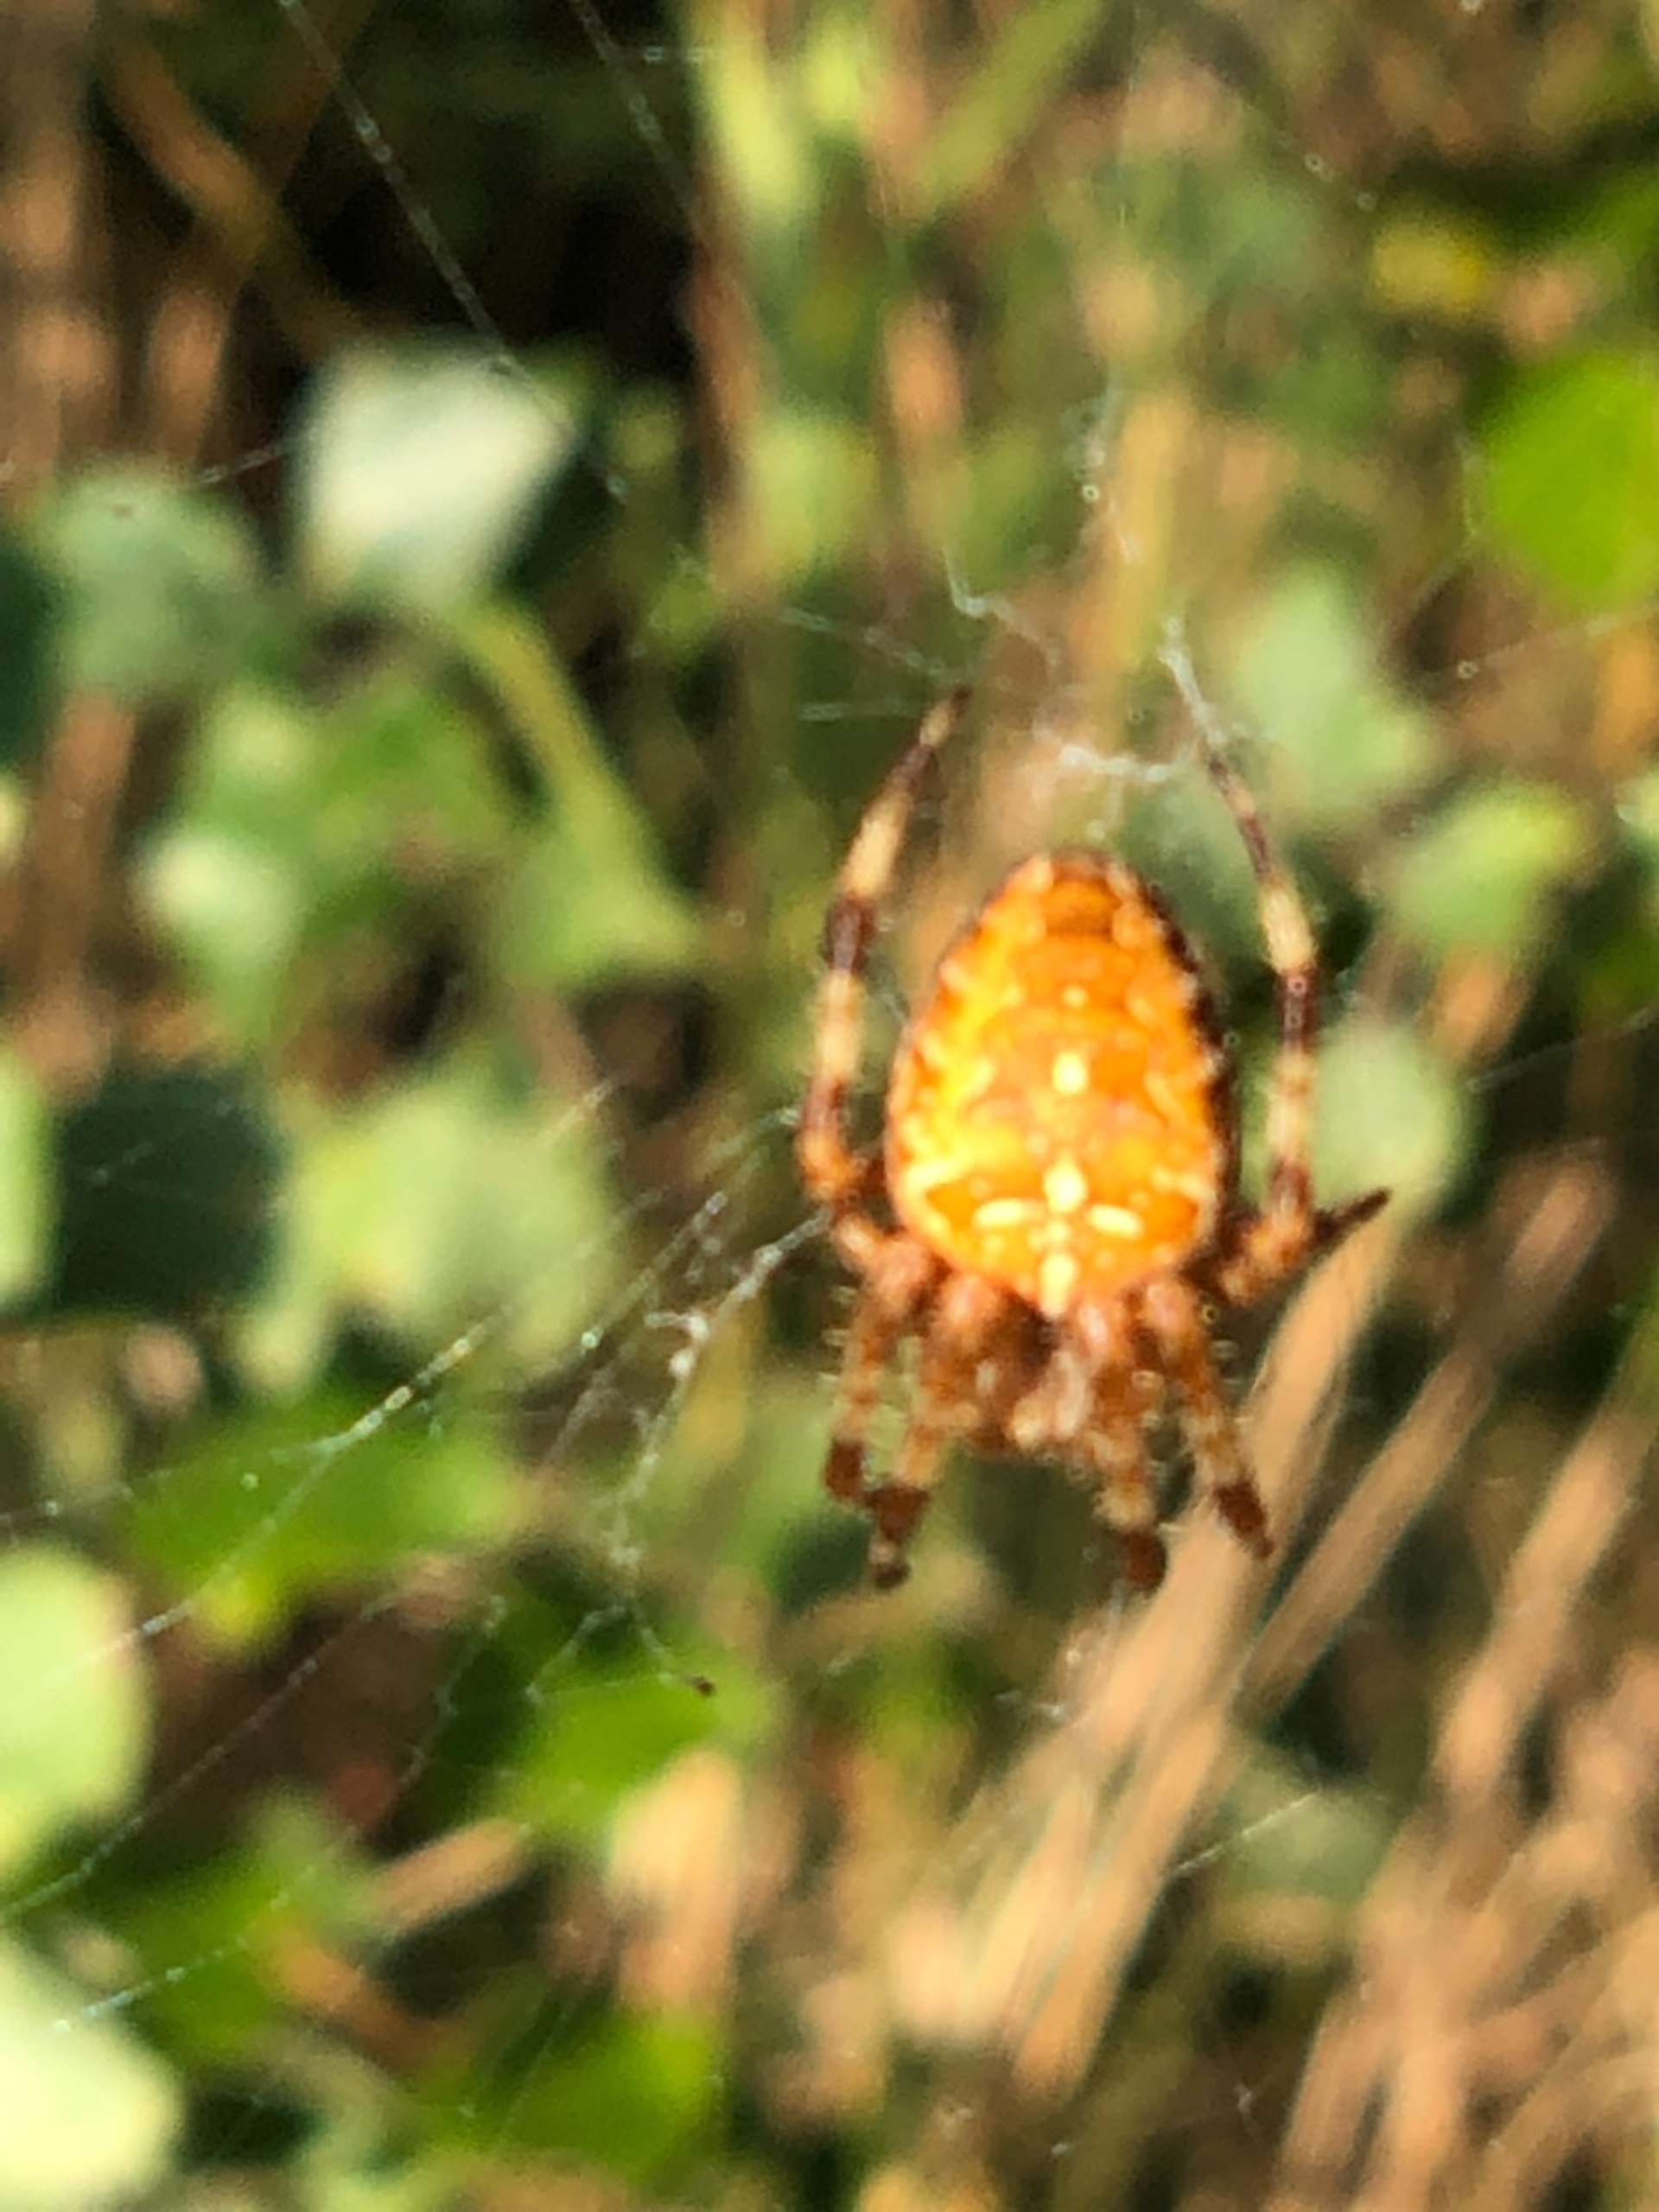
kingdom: Animalia
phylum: Arthropoda
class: Arachnida
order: Araneae
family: Araneidae
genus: Araneus
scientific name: Araneus diadematus
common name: Korsedderkop
